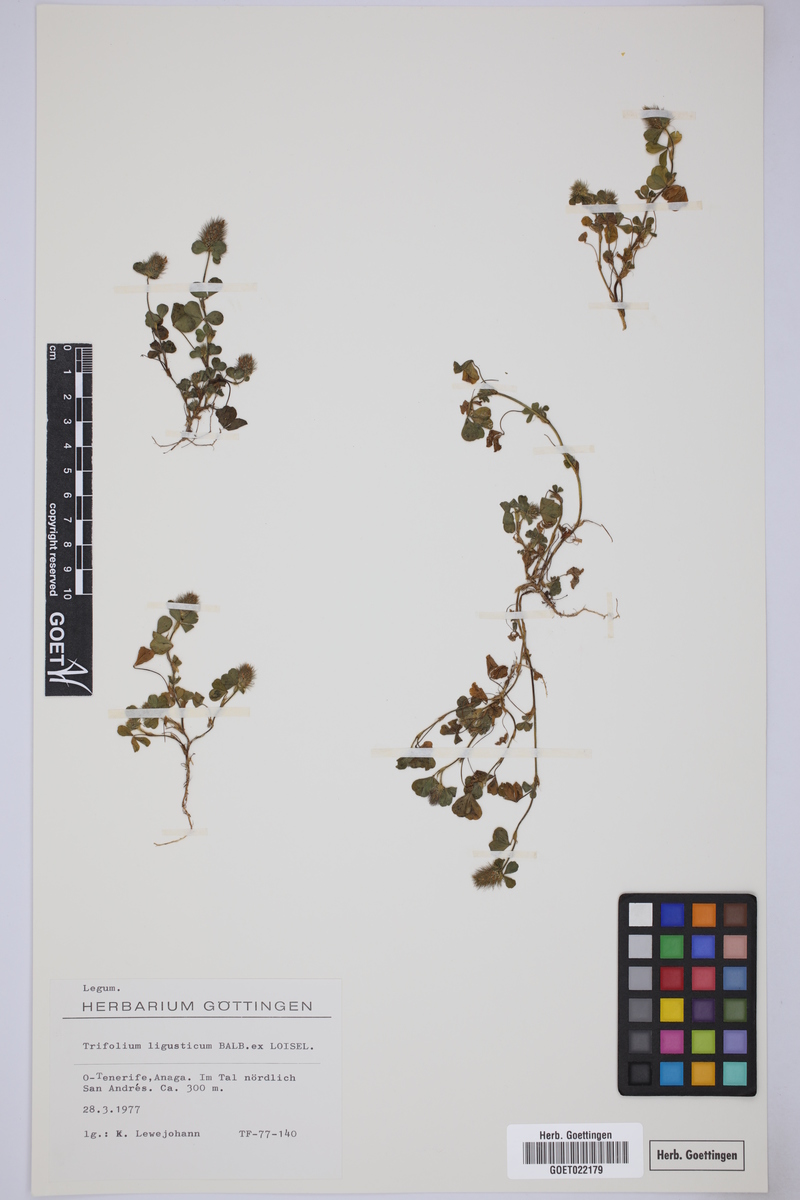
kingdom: Plantae
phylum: Tracheophyta
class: Magnoliopsida
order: Fabales
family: Fabaceae
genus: Trifolium
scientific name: Trifolium ligusticum
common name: Ligurian clover
